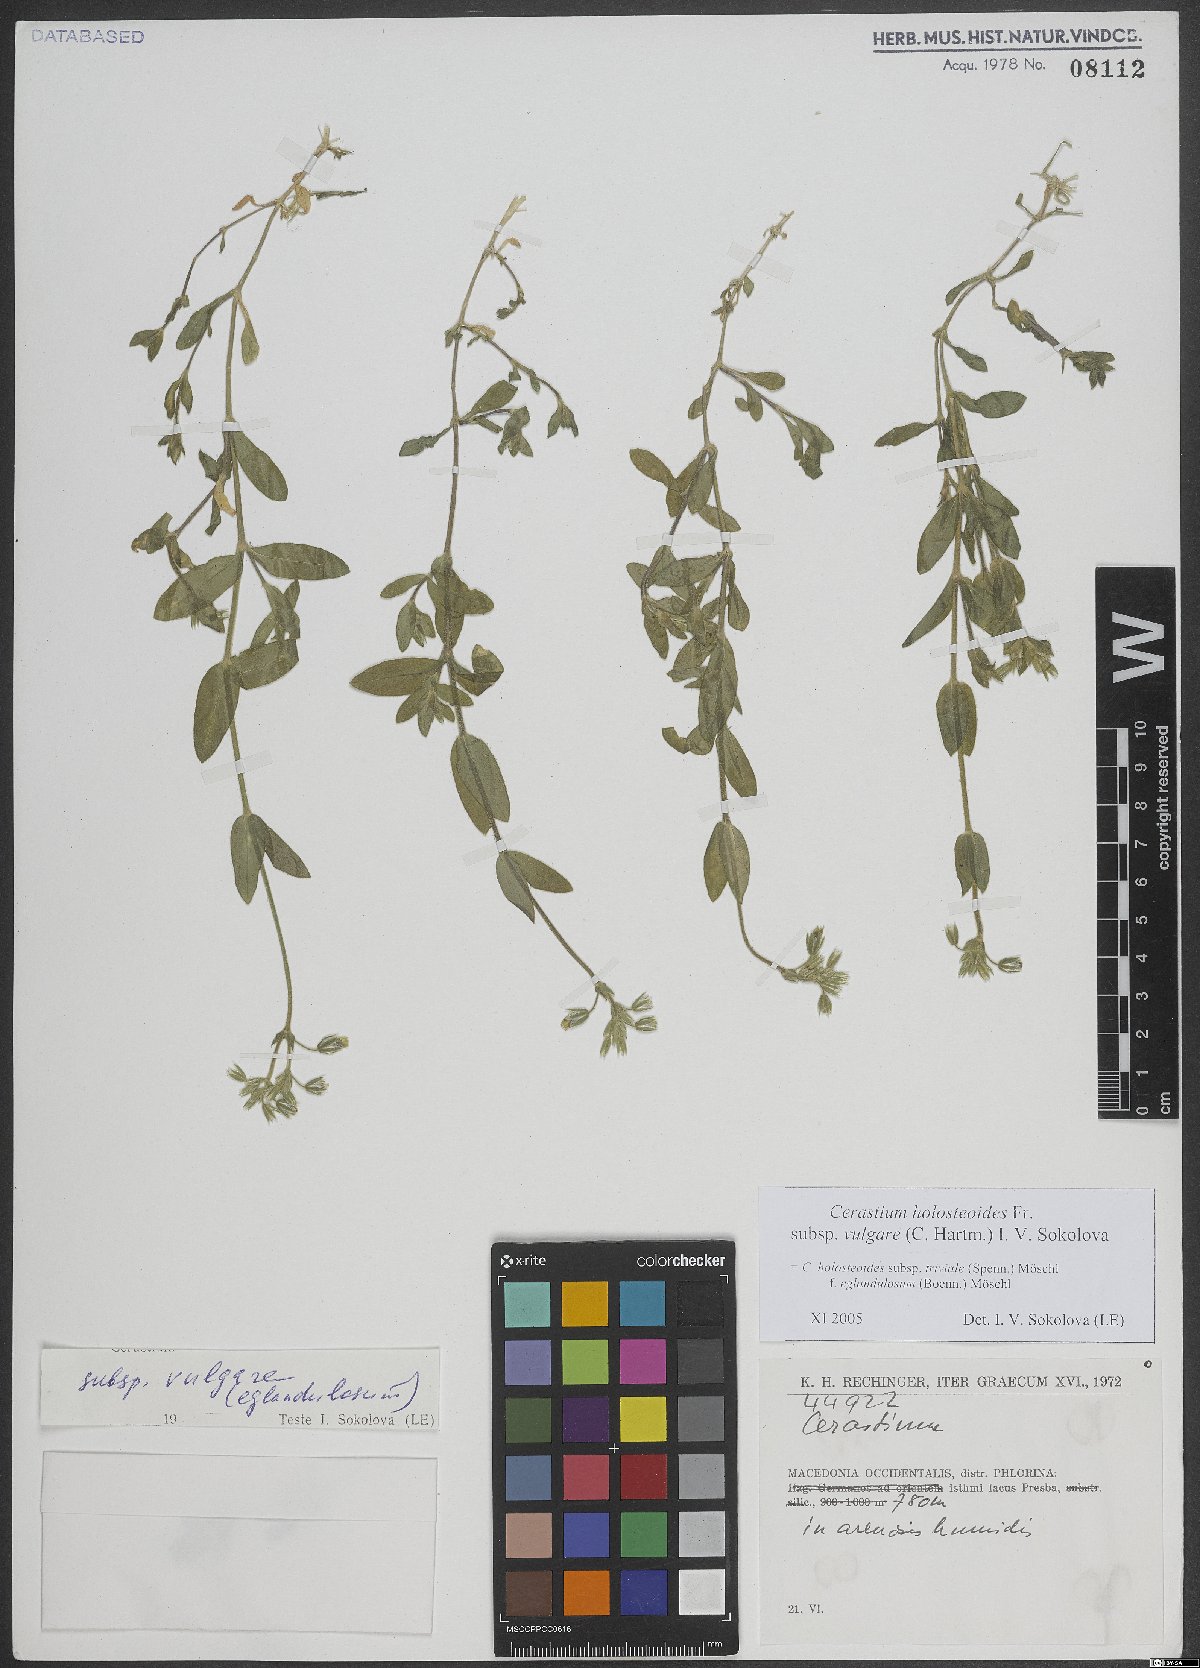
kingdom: Plantae
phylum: Tracheophyta
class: Magnoliopsida
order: Caryophyllales
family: Caryophyllaceae
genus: Cerastium
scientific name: Cerastium holosteoides
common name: Big chickweed
